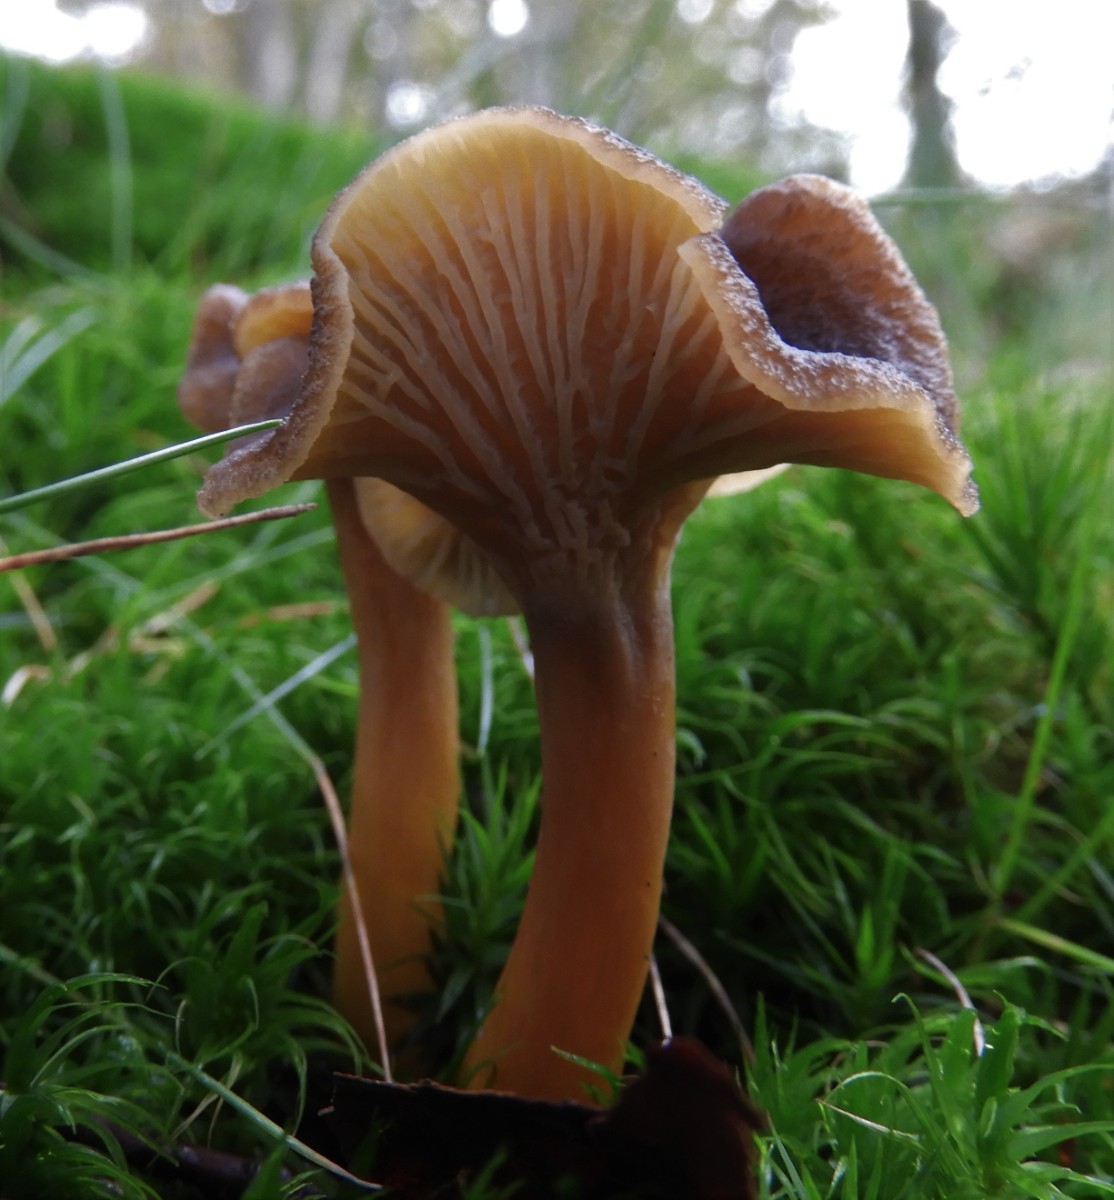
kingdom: Fungi
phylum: Basidiomycota
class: Agaricomycetes
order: Cantharellales
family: Hydnaceae
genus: Craterellus
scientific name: Craterellus tubaeformis
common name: tragt-kantarel
